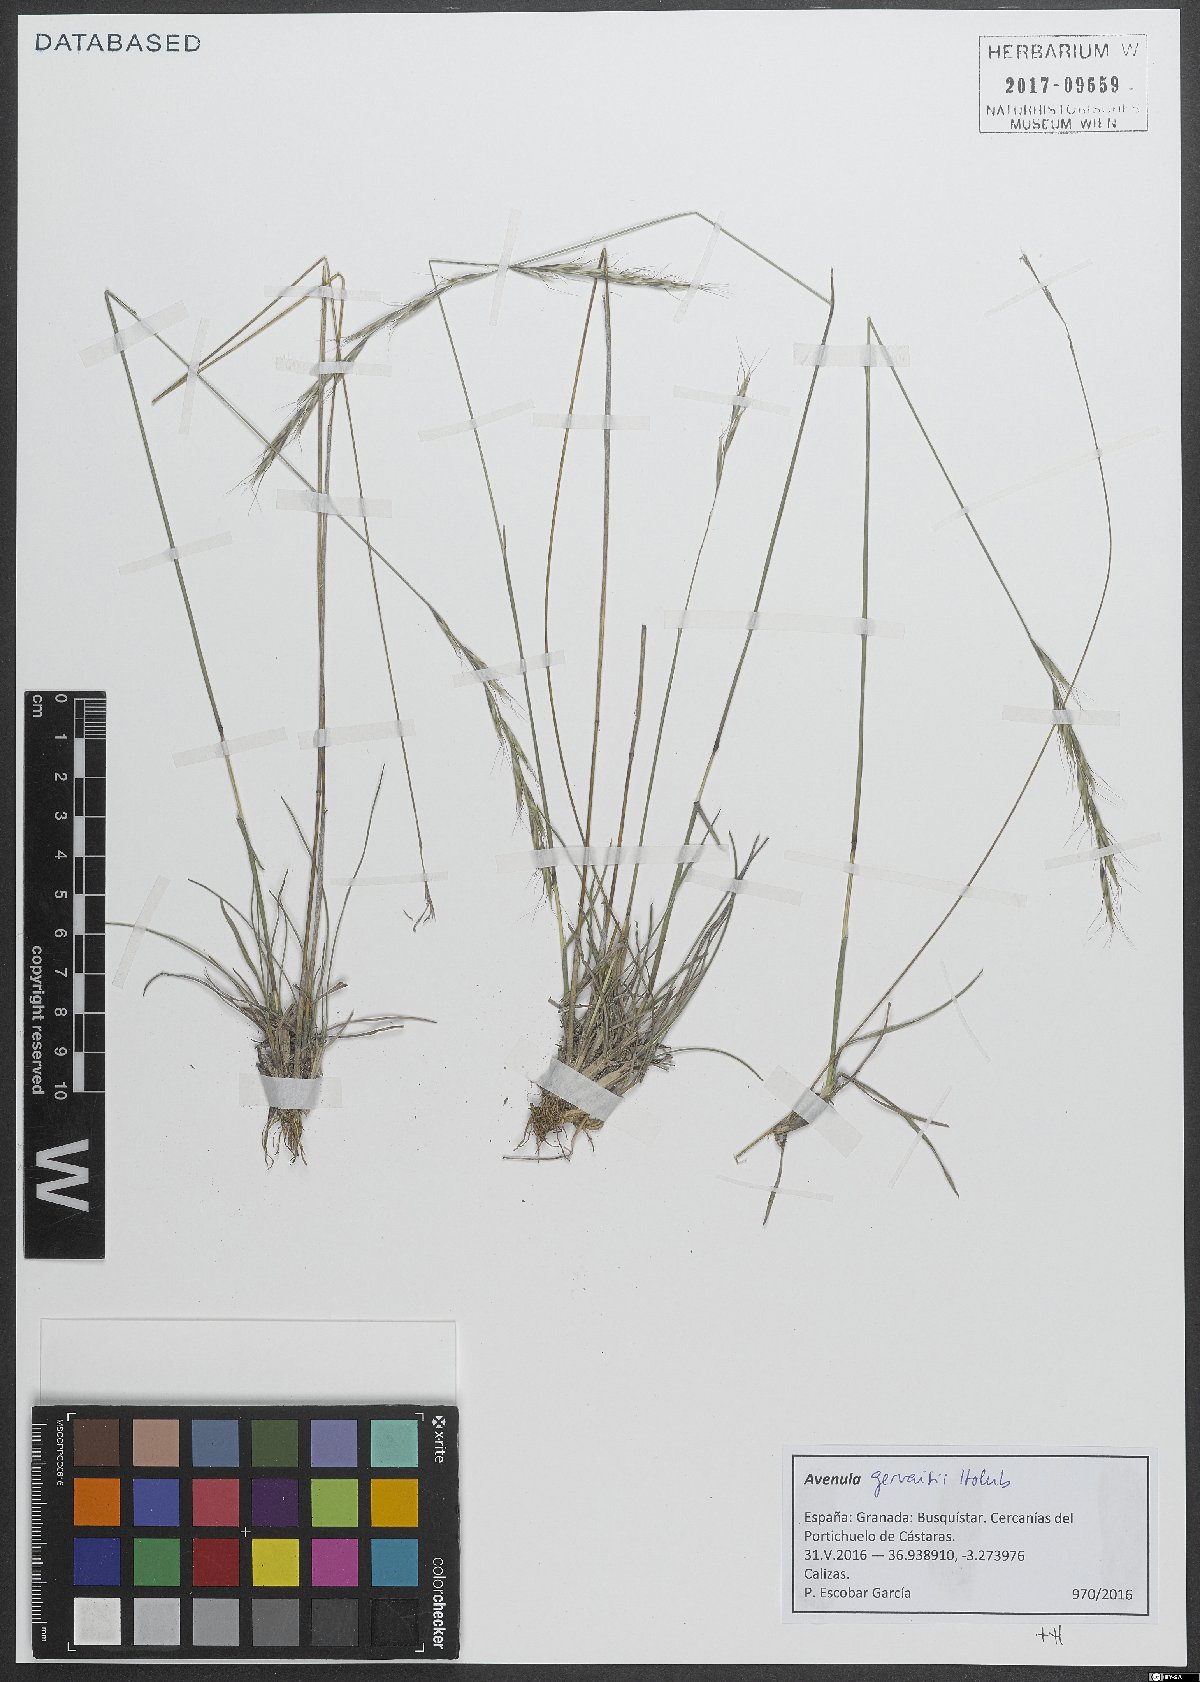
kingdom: Plantae
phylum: Tracheophyta
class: Liliopsida
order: Poales
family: Poaceae
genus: Helictochloa
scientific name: Helictochloa gervaisii
